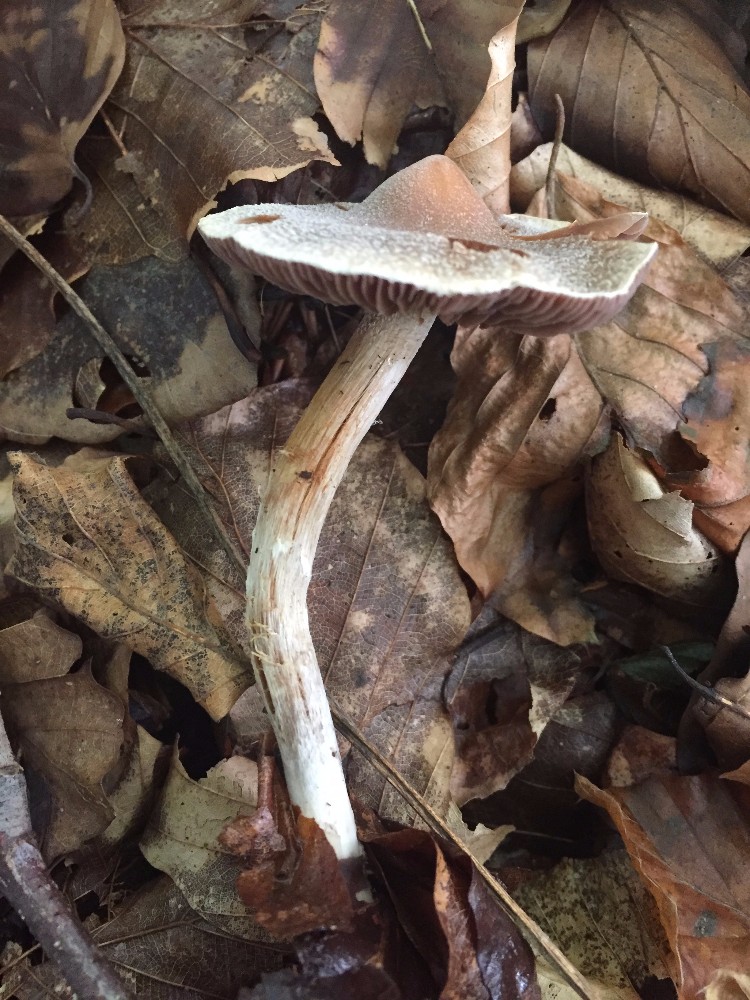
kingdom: Fungi
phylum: Basidiomycota
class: Agaricomycetes
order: Agaricales
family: Cortinariaceae
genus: Cortinarius
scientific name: Cortinarius geraniolens
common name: geranium-slørhat
